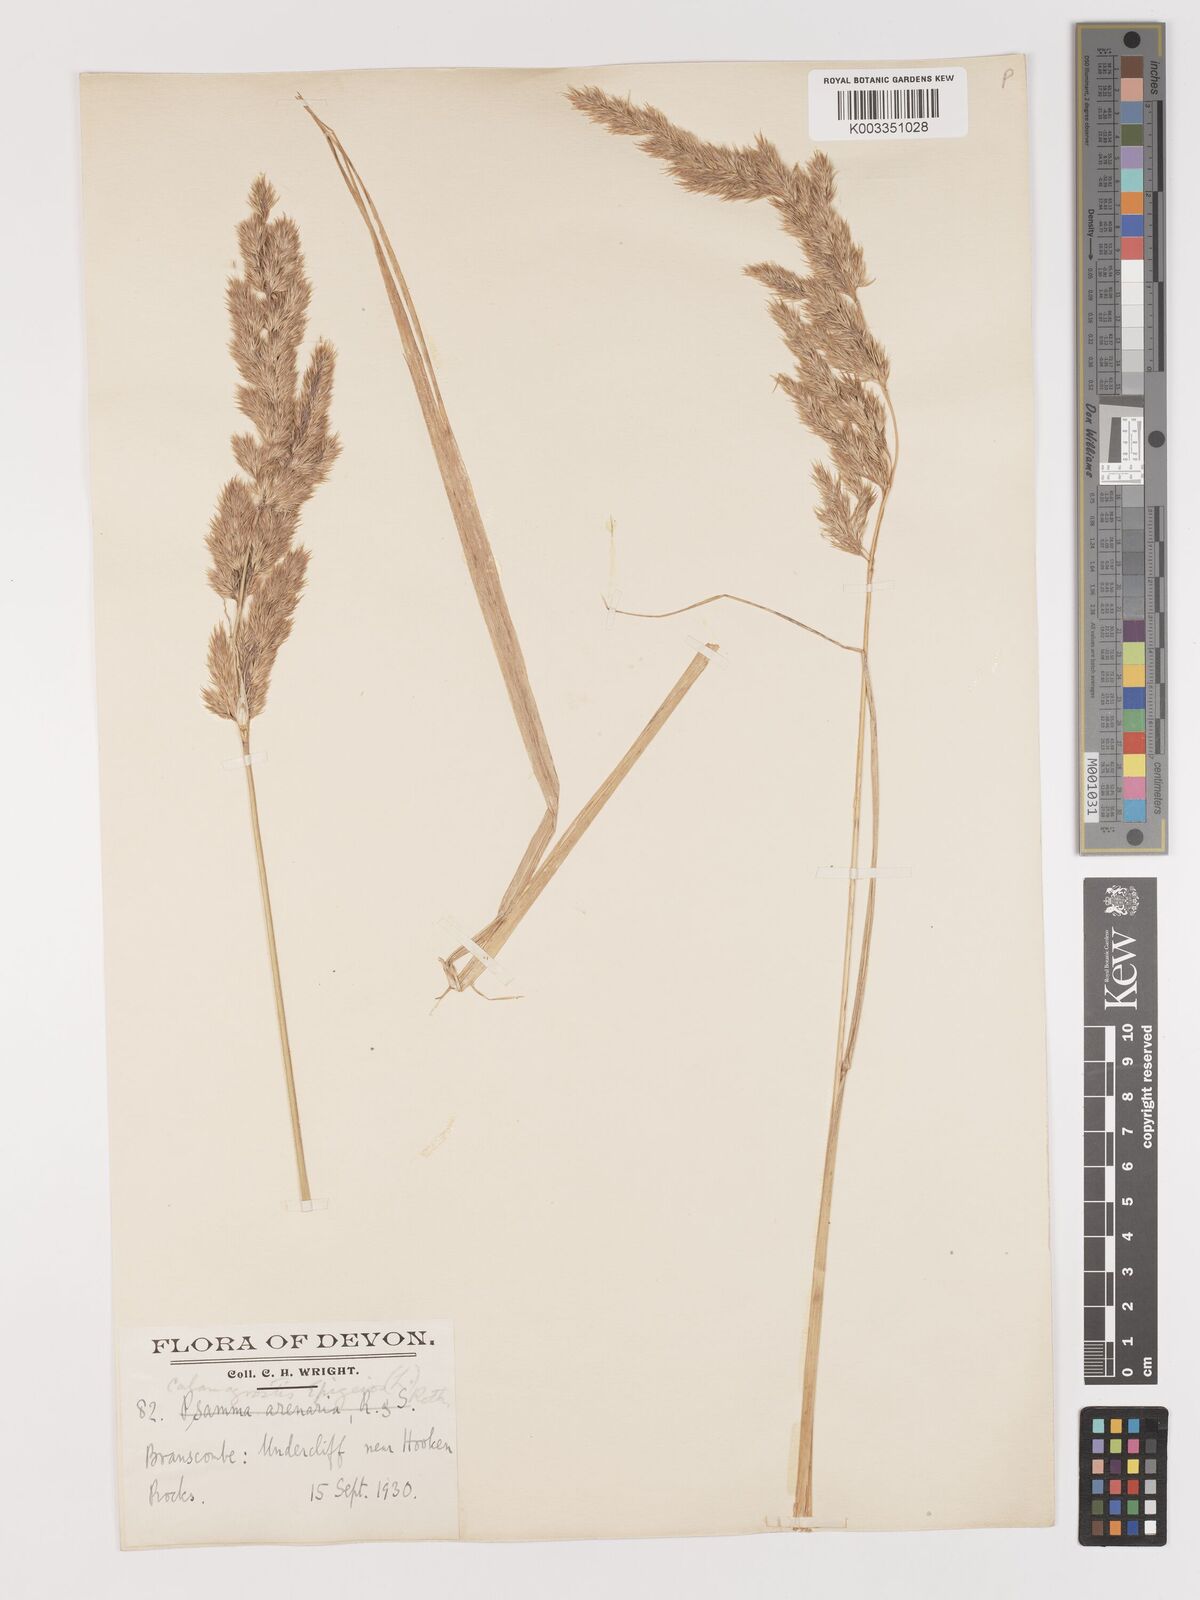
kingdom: Plantae
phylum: Tracheophyta
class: Liliopsida
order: Poales
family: Poaceae
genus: Calamagrostis
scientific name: Calamagrostis epigejos
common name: Wood small-reed
